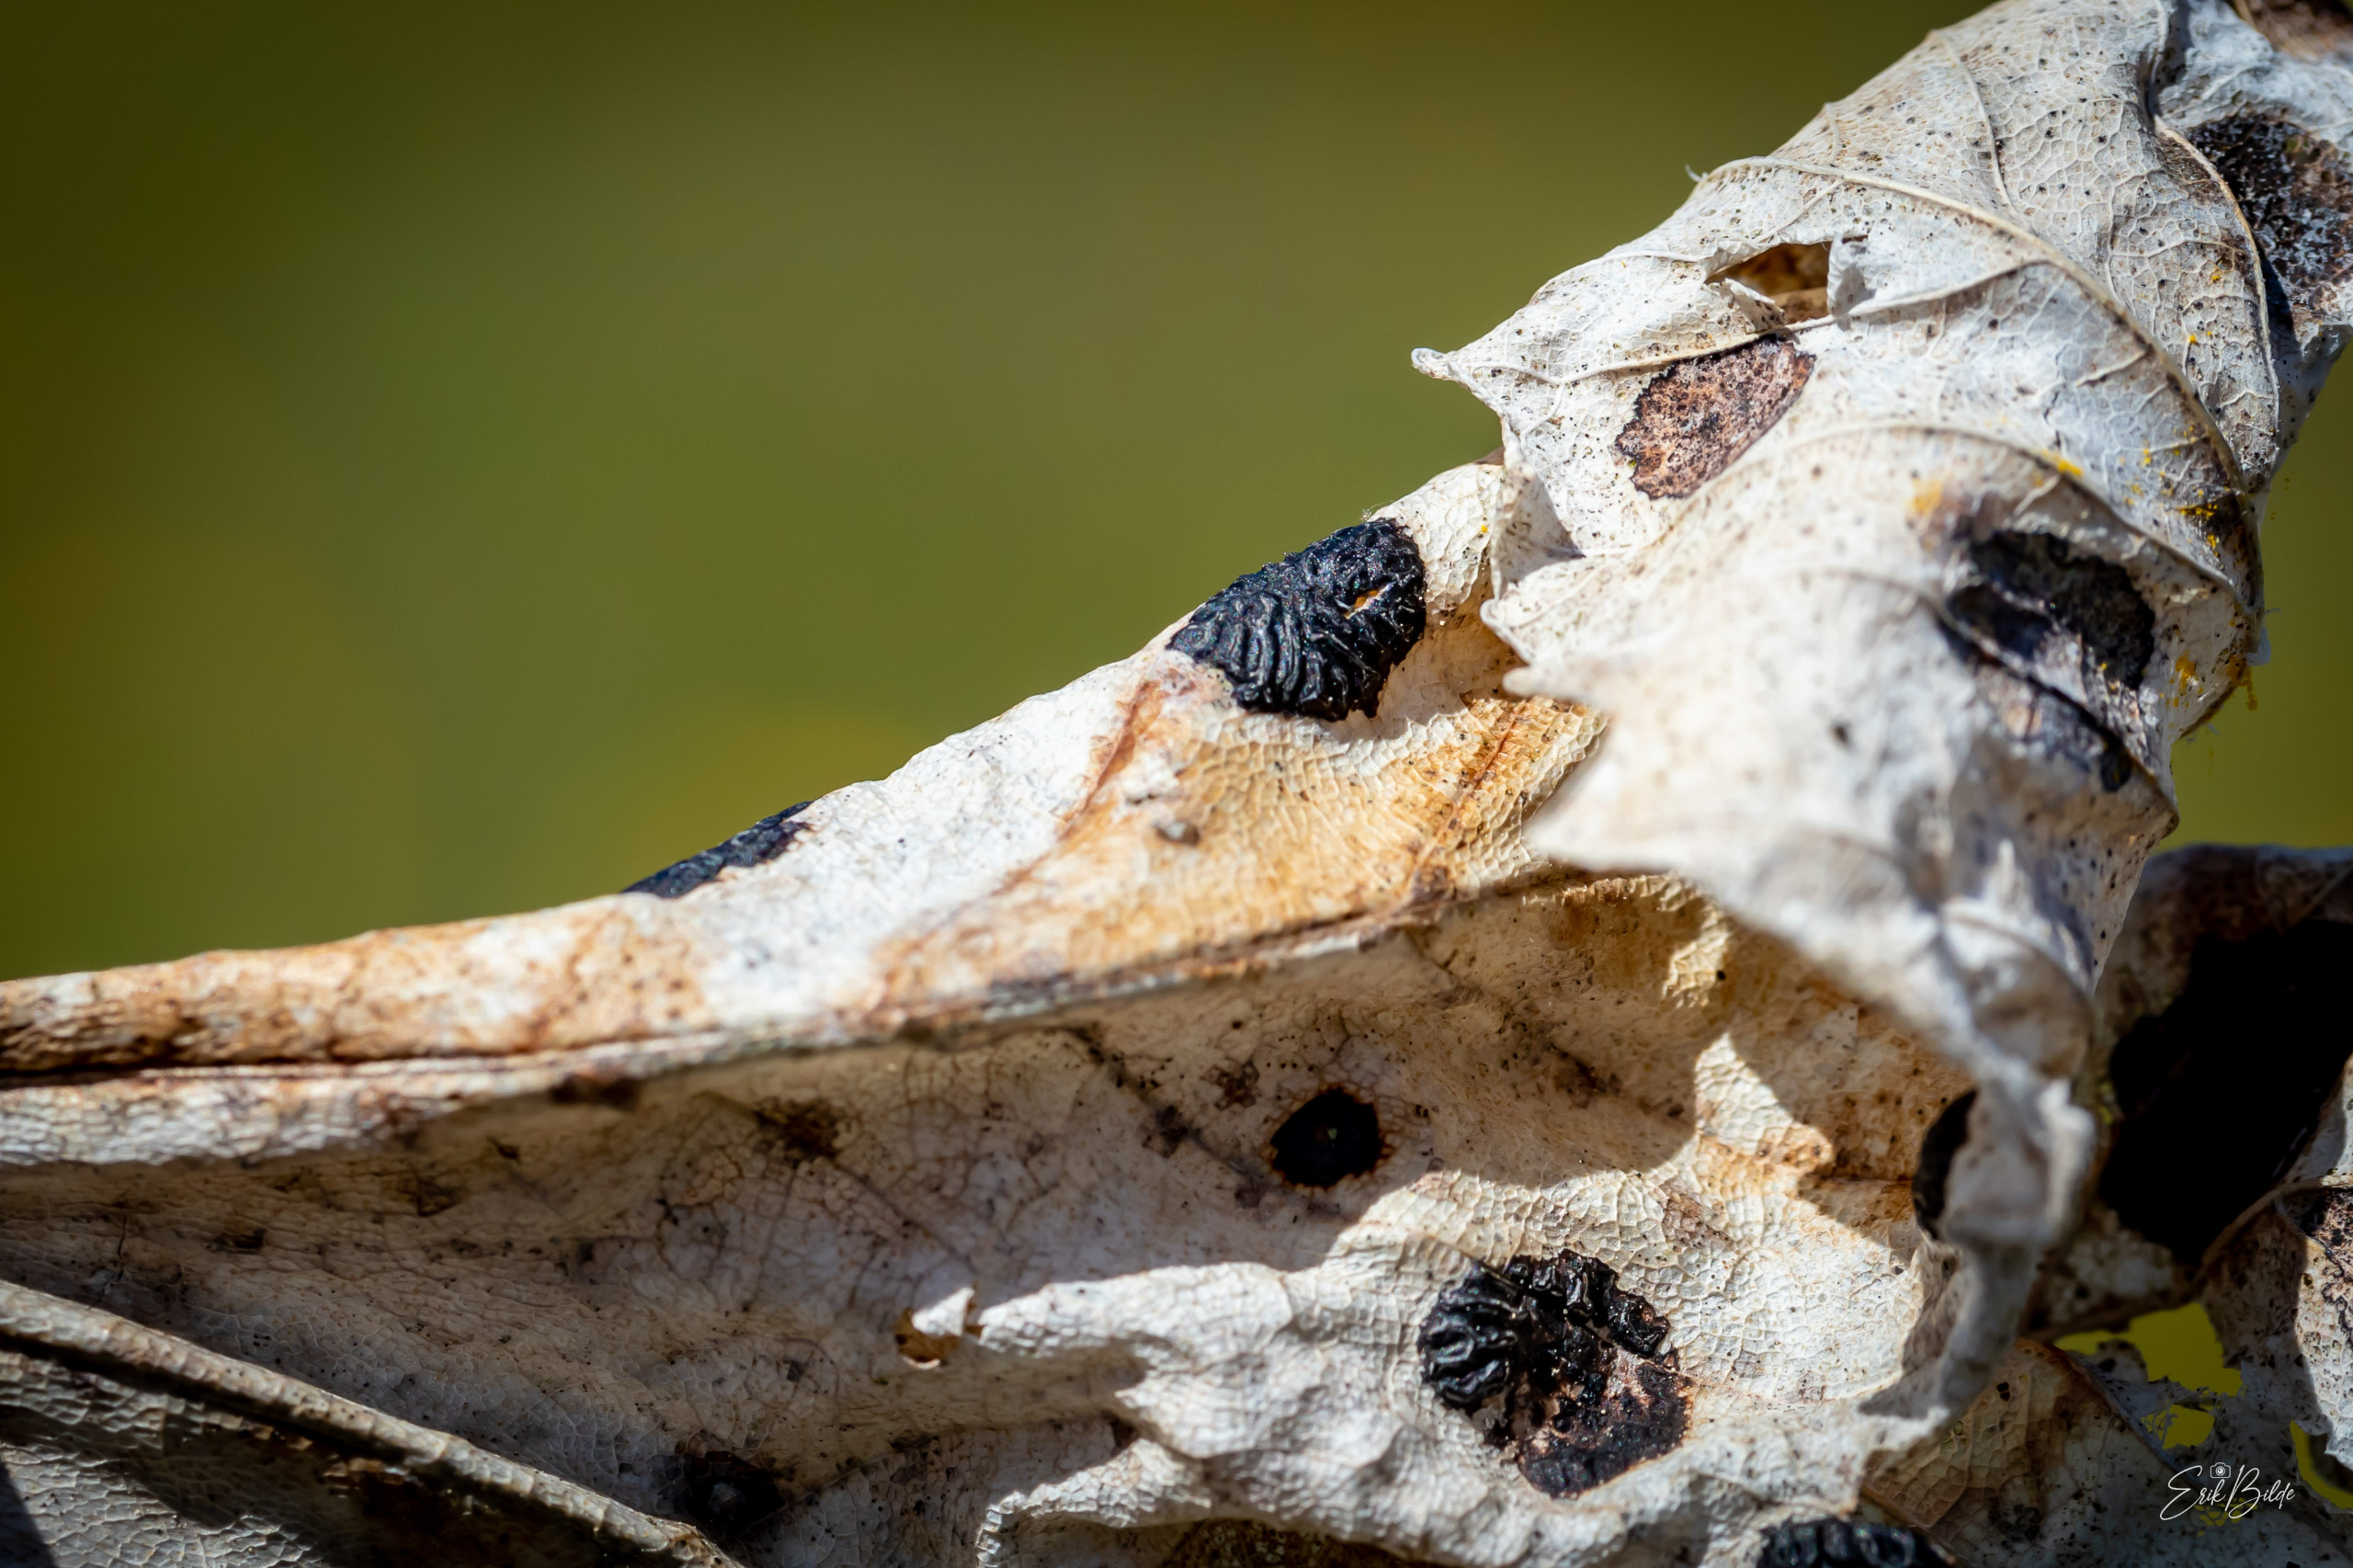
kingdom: Fungi
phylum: Ascomycota
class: Leotiomycetes
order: Rhytismatales
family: Rhytismataceae
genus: Rhytisma
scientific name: Rhytisma acerinum
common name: Ahorn-rynkeplet
